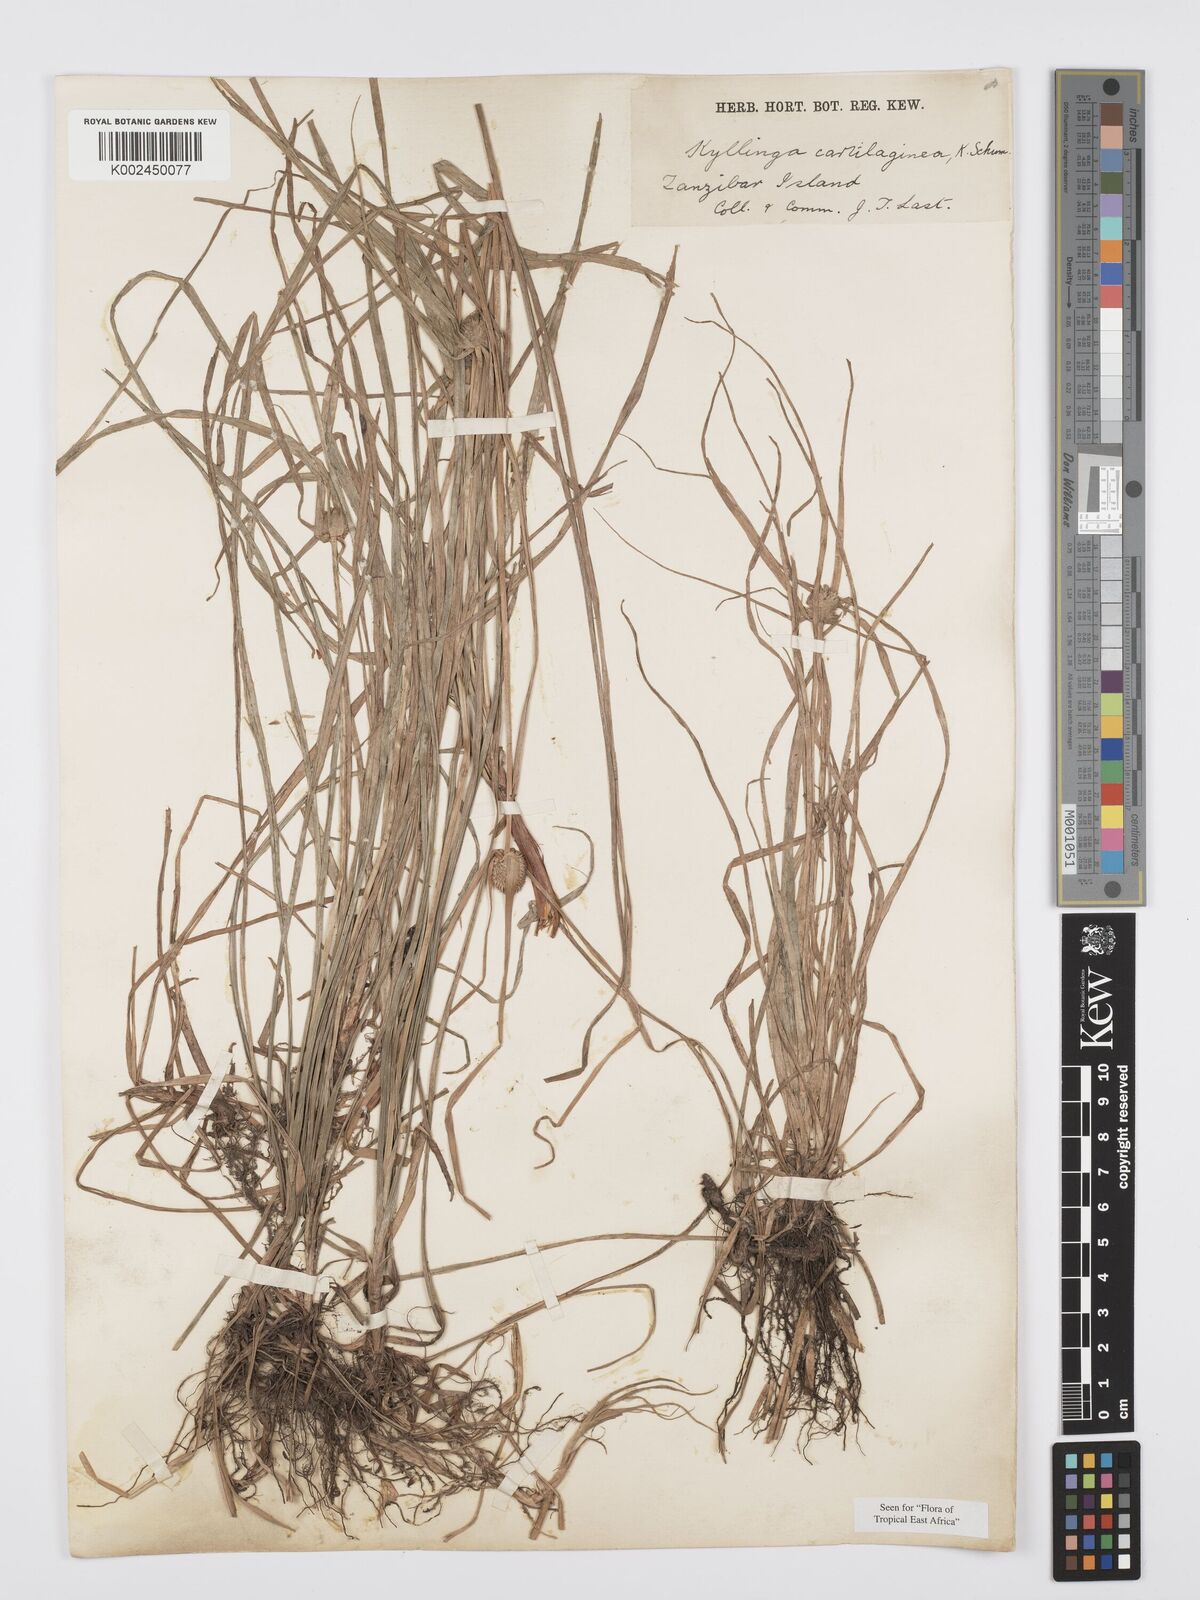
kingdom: Plantae
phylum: Tracheophyta
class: Liliopsida
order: Poales
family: Cyperaceae
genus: Cyperus
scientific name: Cyperus cartilagineus
